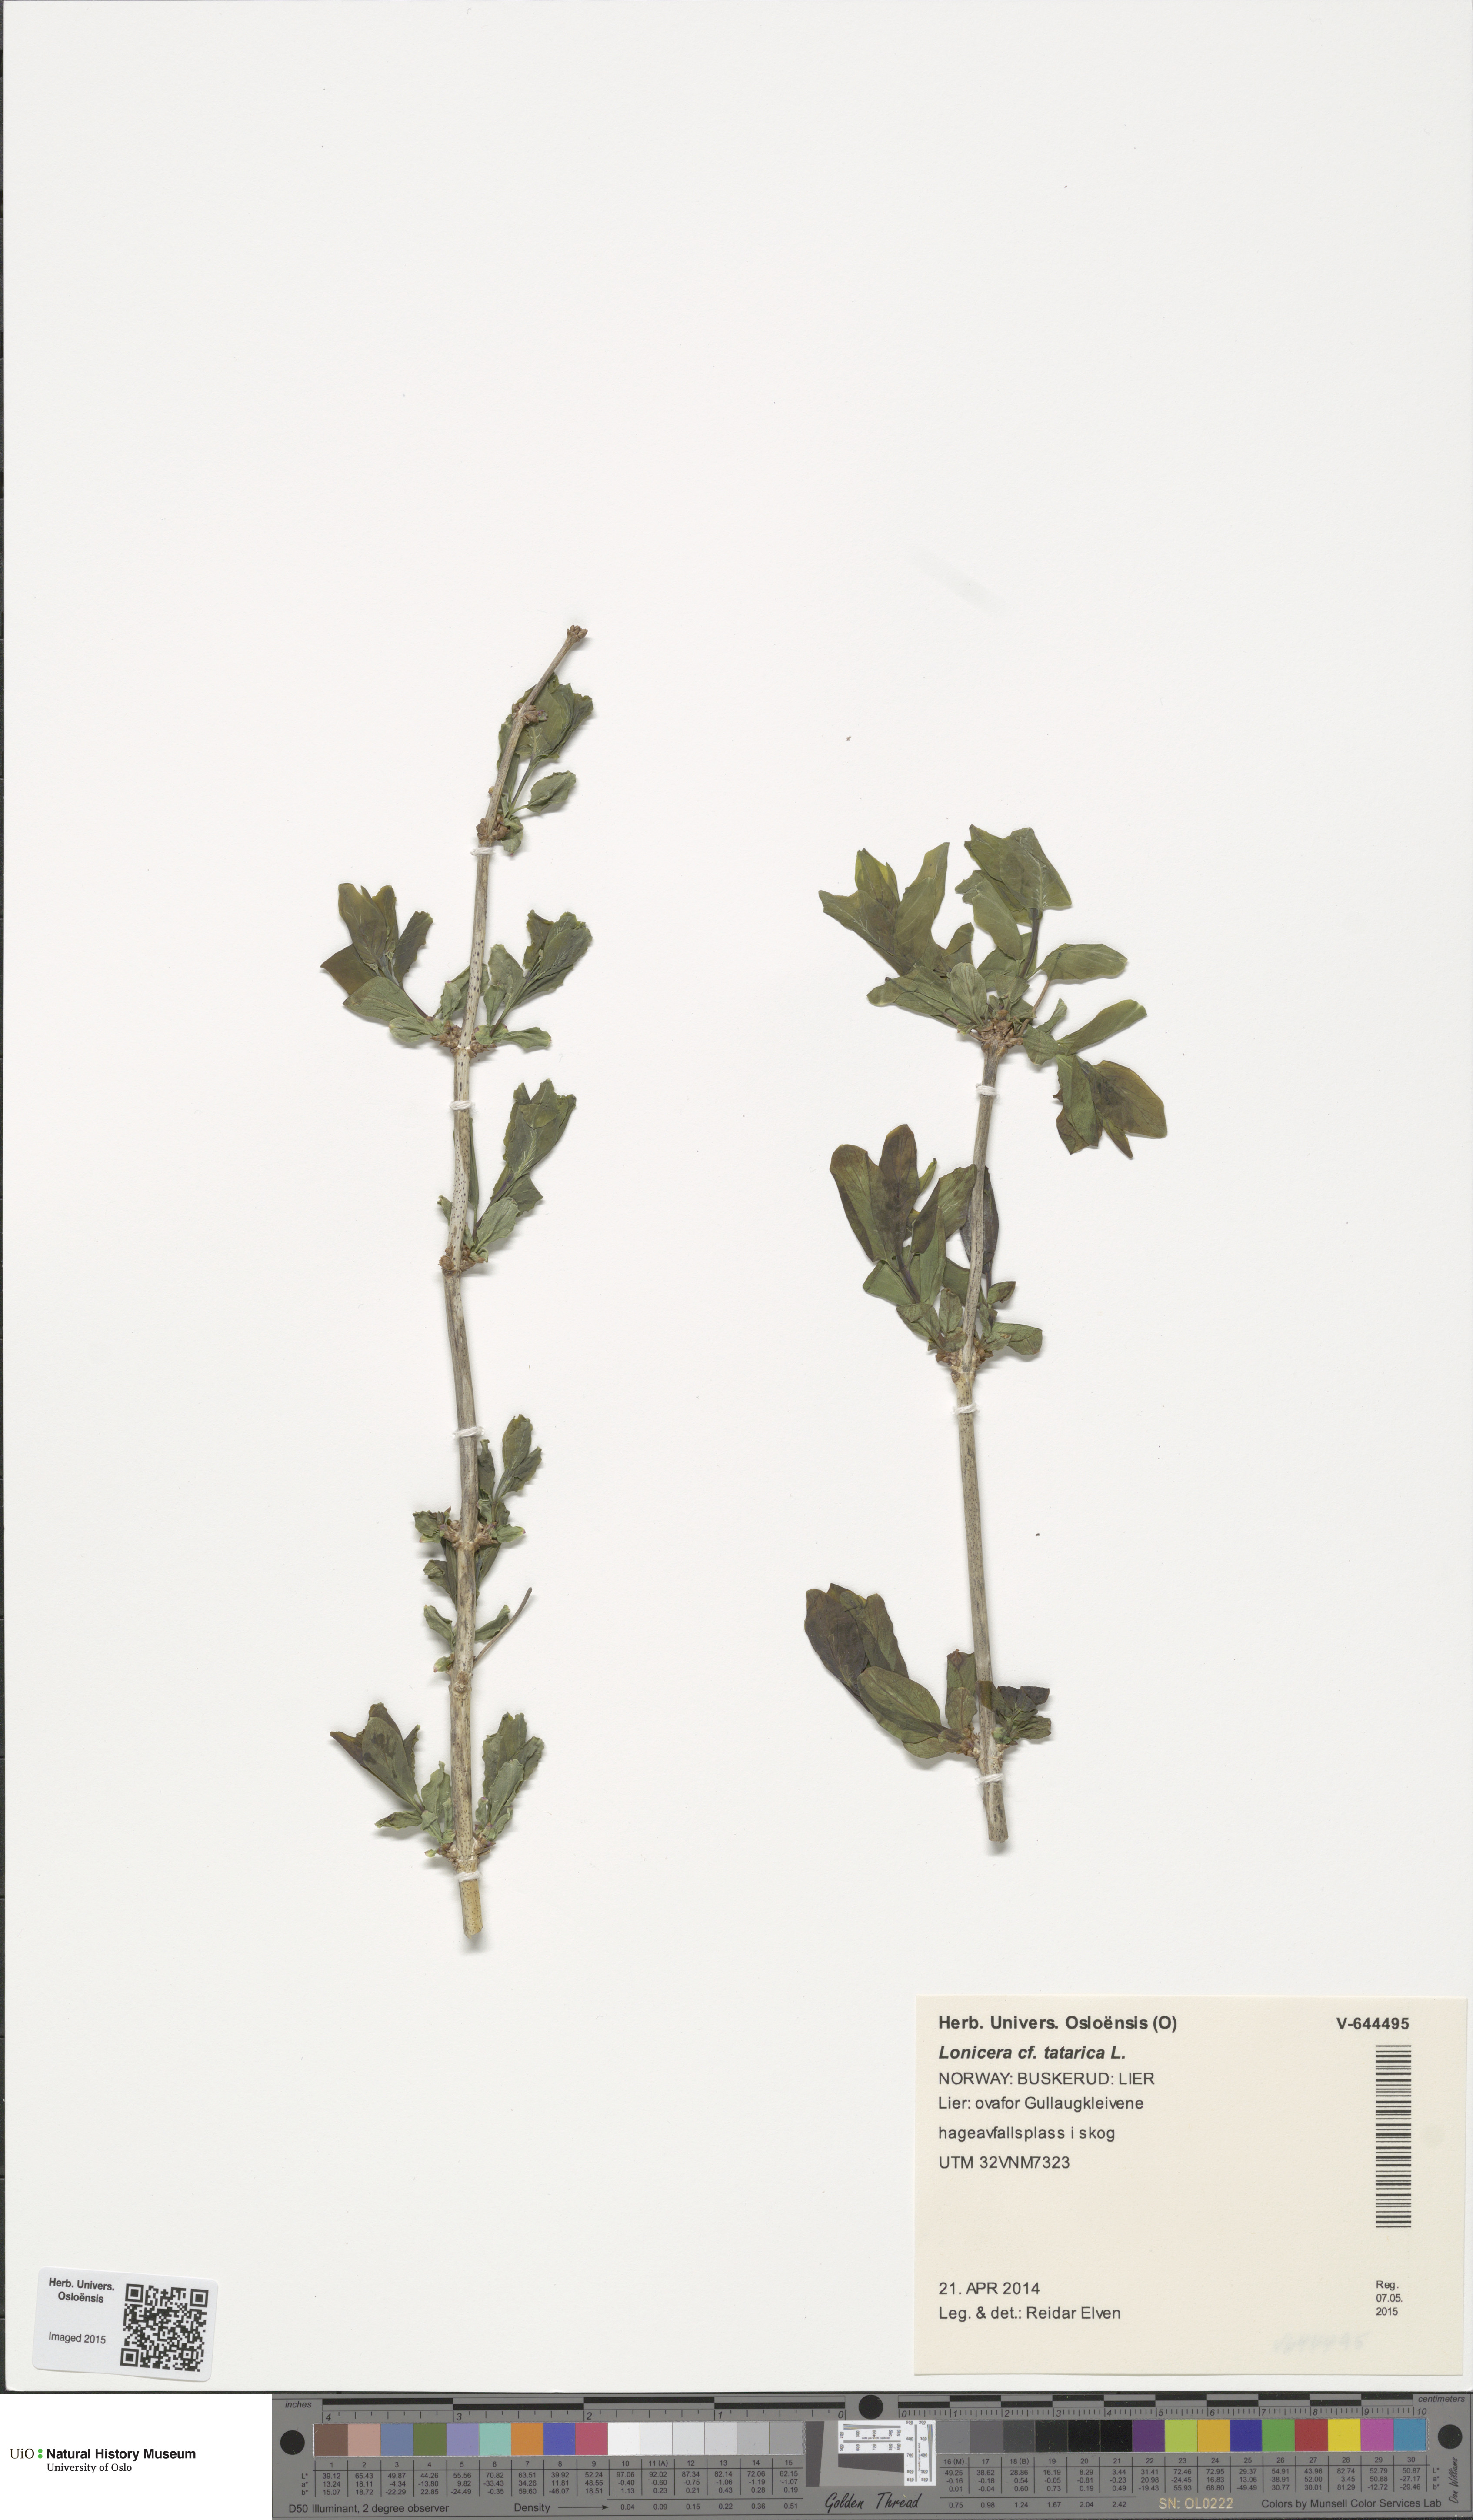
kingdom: Plantae
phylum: Tracheophyta
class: Magnoliopsida
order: Dipsacales
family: Caprifoliaceae
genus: Lonicera
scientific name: Lonicera tatarica
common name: Tatarian honeysuckle
